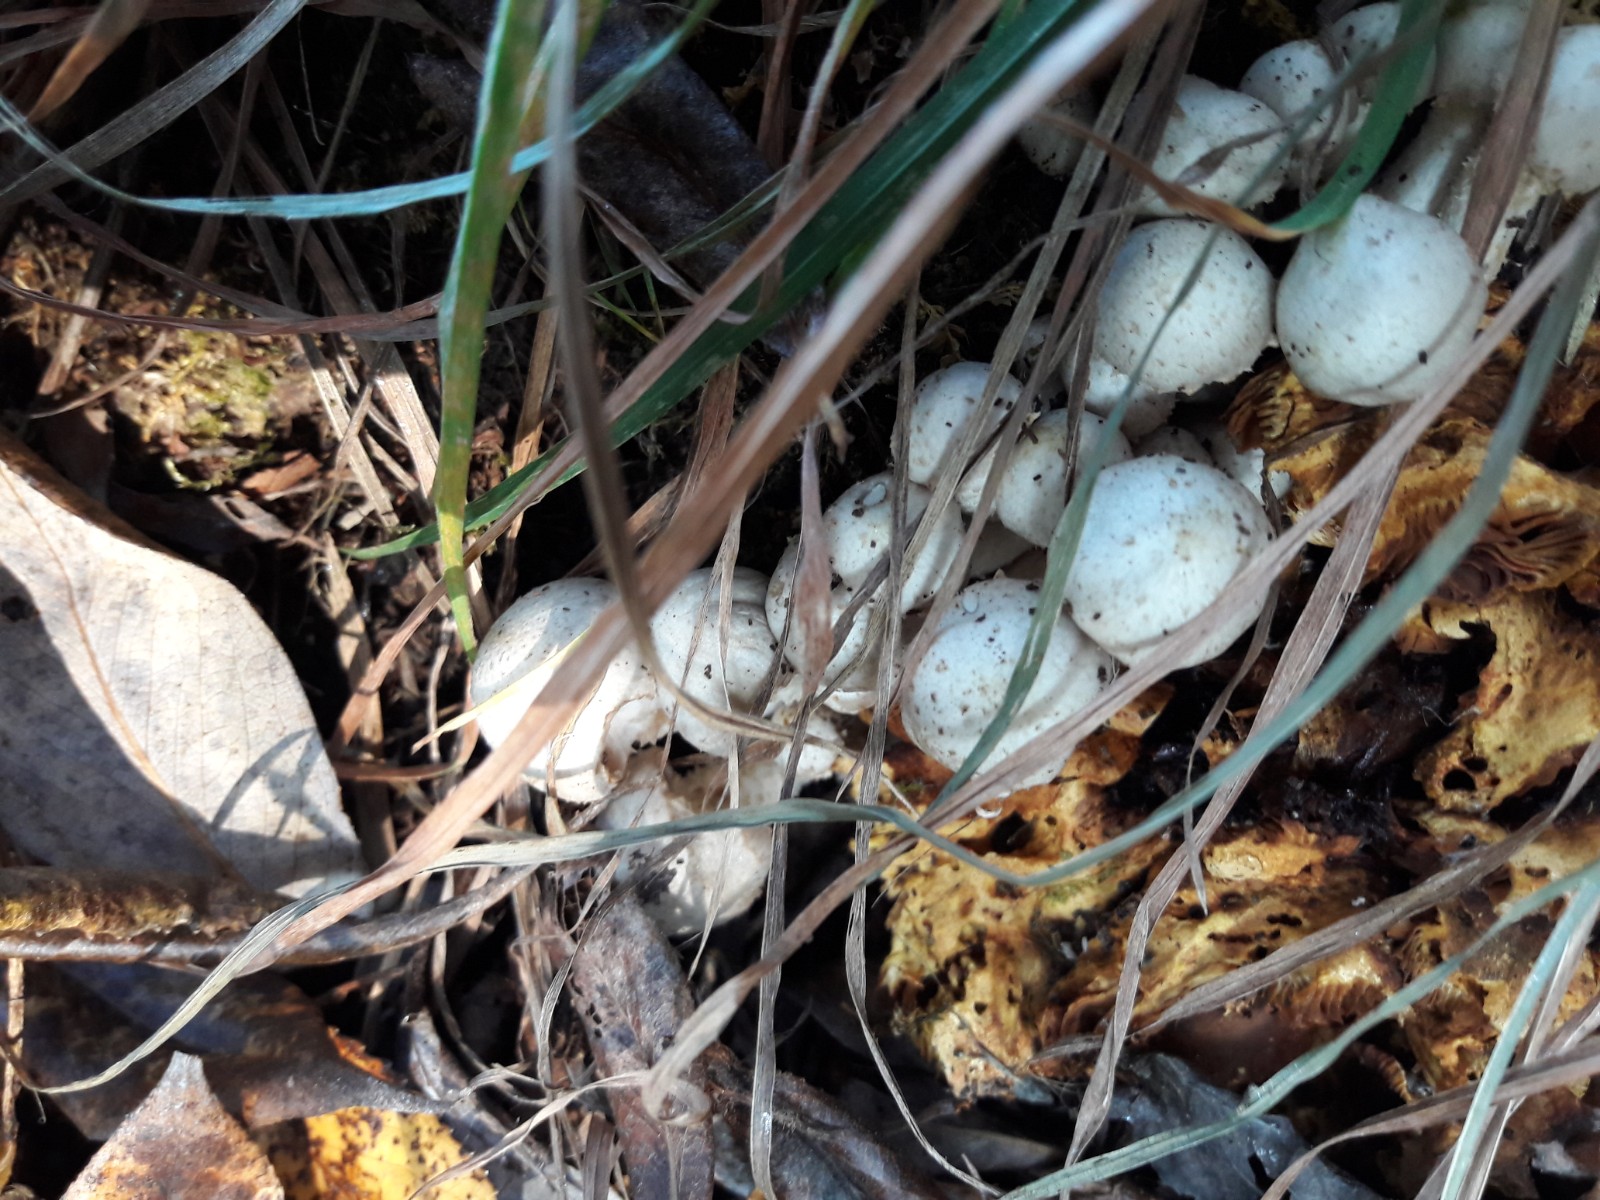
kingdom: Fungi
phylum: Basidiomycota
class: Agaricomycetes
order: Agaricales
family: Strophariaceae
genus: Pholiota
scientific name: Pholiota conissans
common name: pile-skælhat
